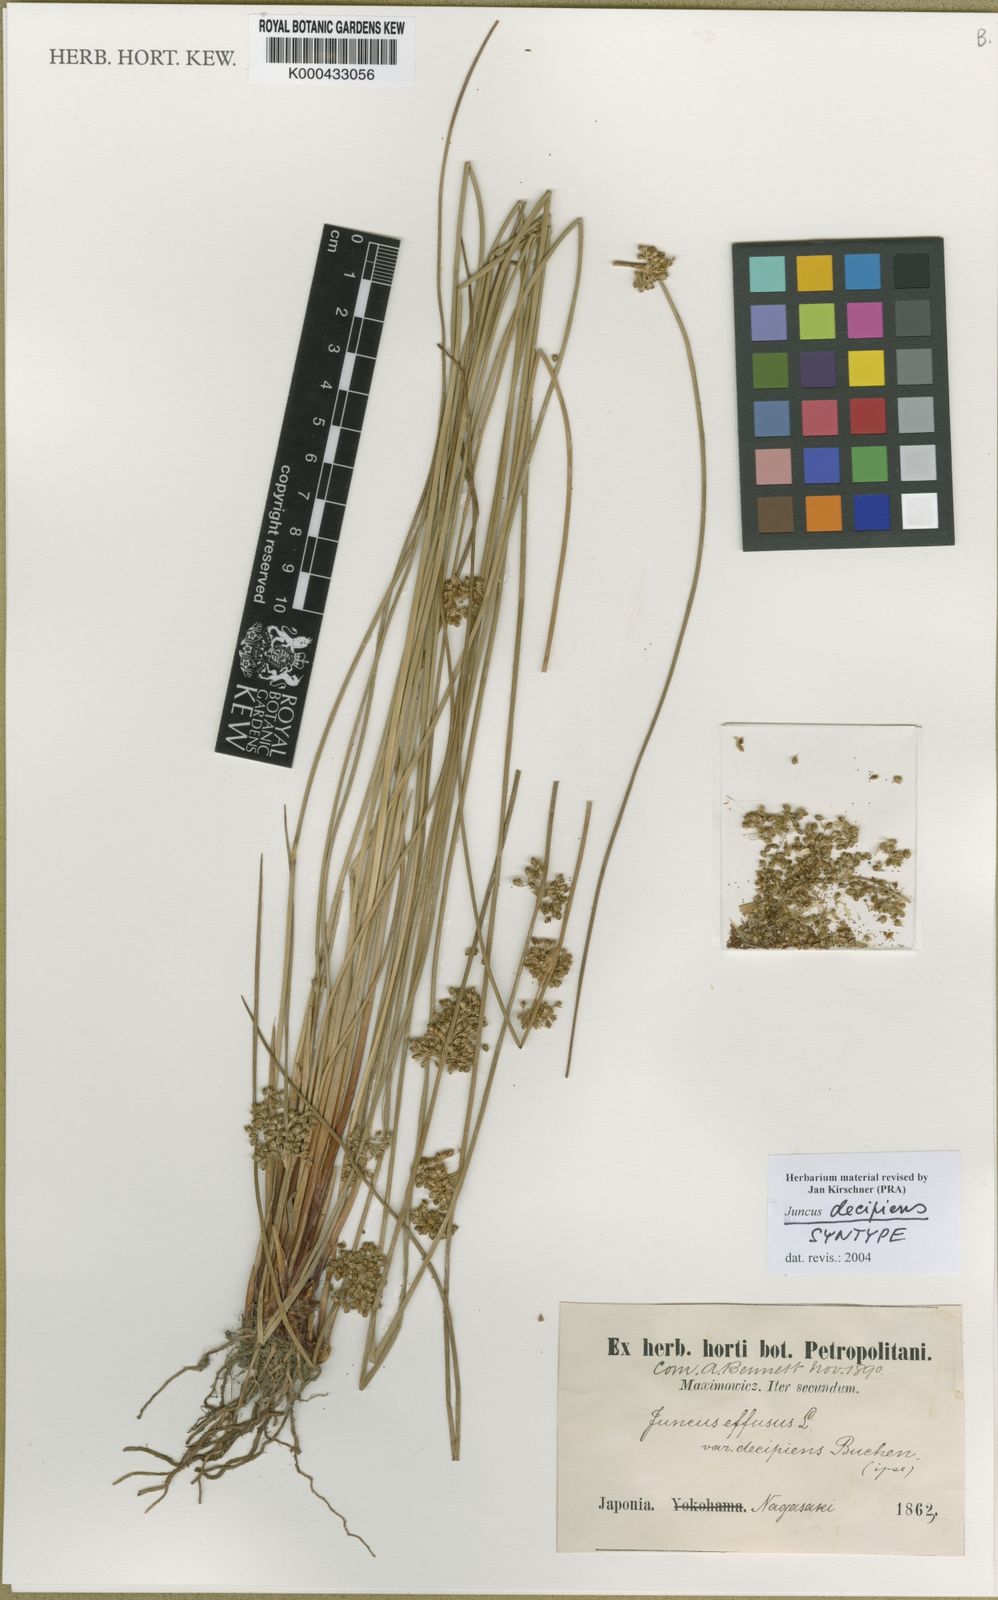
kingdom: Plantae
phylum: Tracheophyta
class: Liliopsida
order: Poales
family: Juncaceae
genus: Juncus
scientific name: Juncus decipiens
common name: Lamp rush
